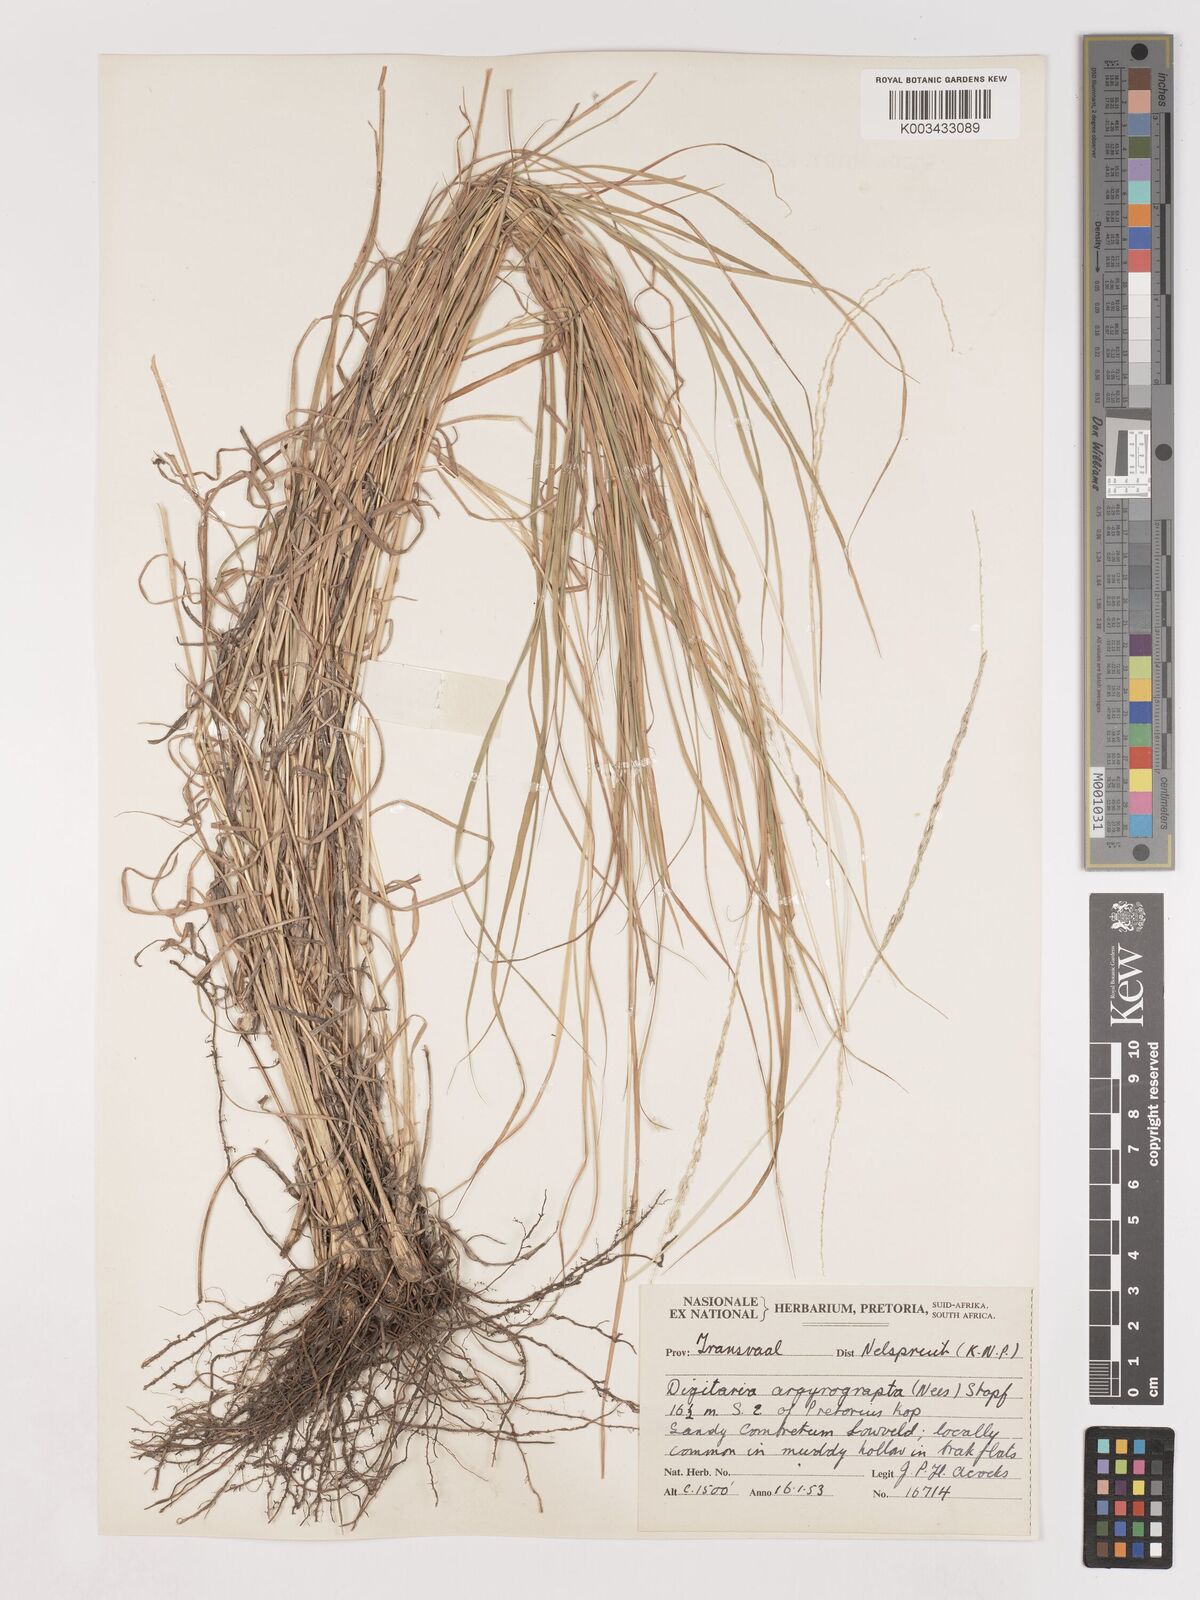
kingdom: Plantae
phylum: Tracheophyta
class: Liliopsida
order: Poales
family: Poaceae
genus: Digitaria
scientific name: Digitaria argyrograpta
